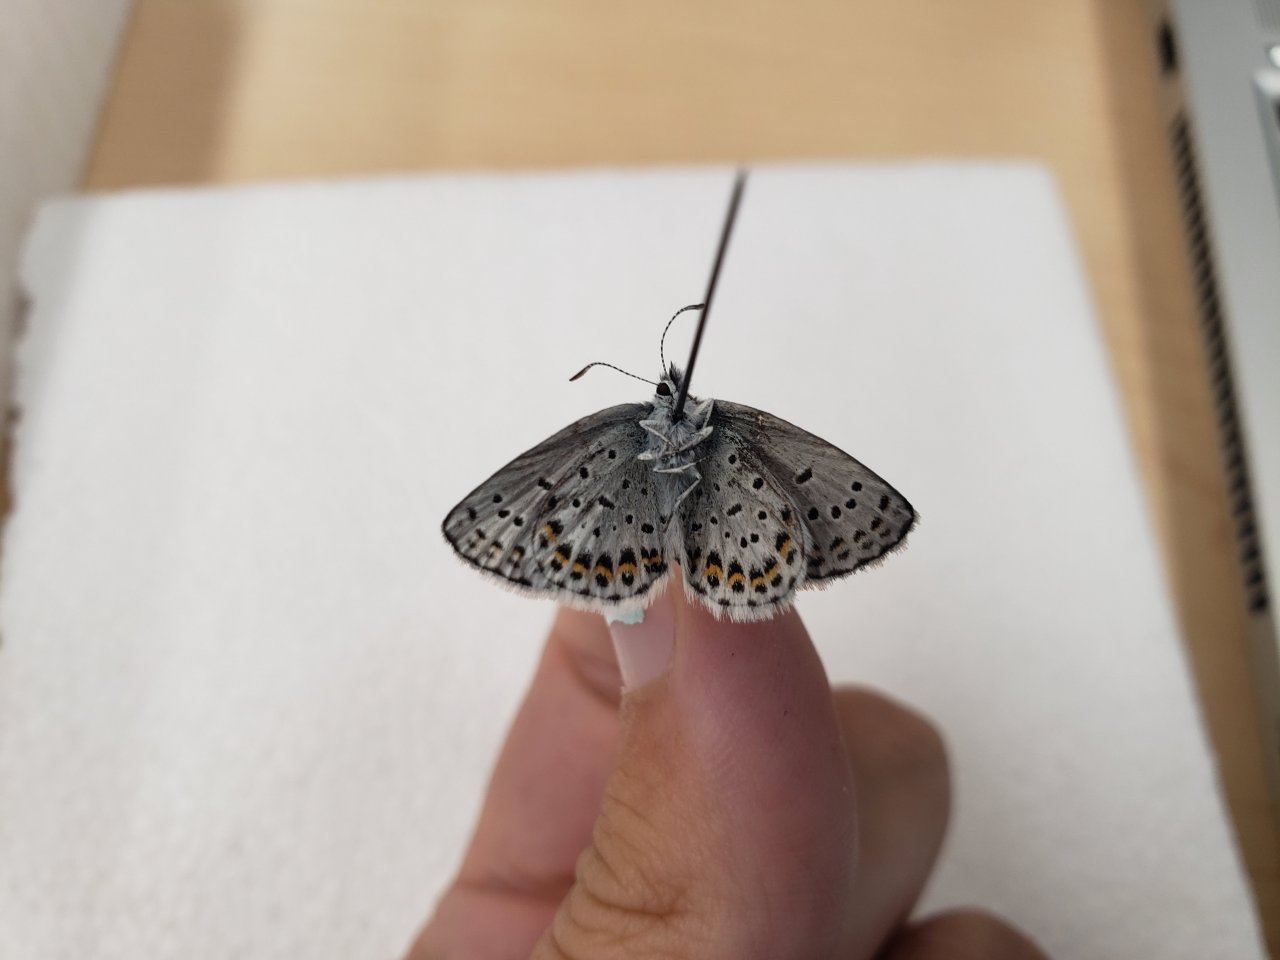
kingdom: Animalia
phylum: Arthropoda
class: Insecta
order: Lepidoptera
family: Lycaenidae
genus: Lycaeides
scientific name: Lycaeides idas
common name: Northern Blue
